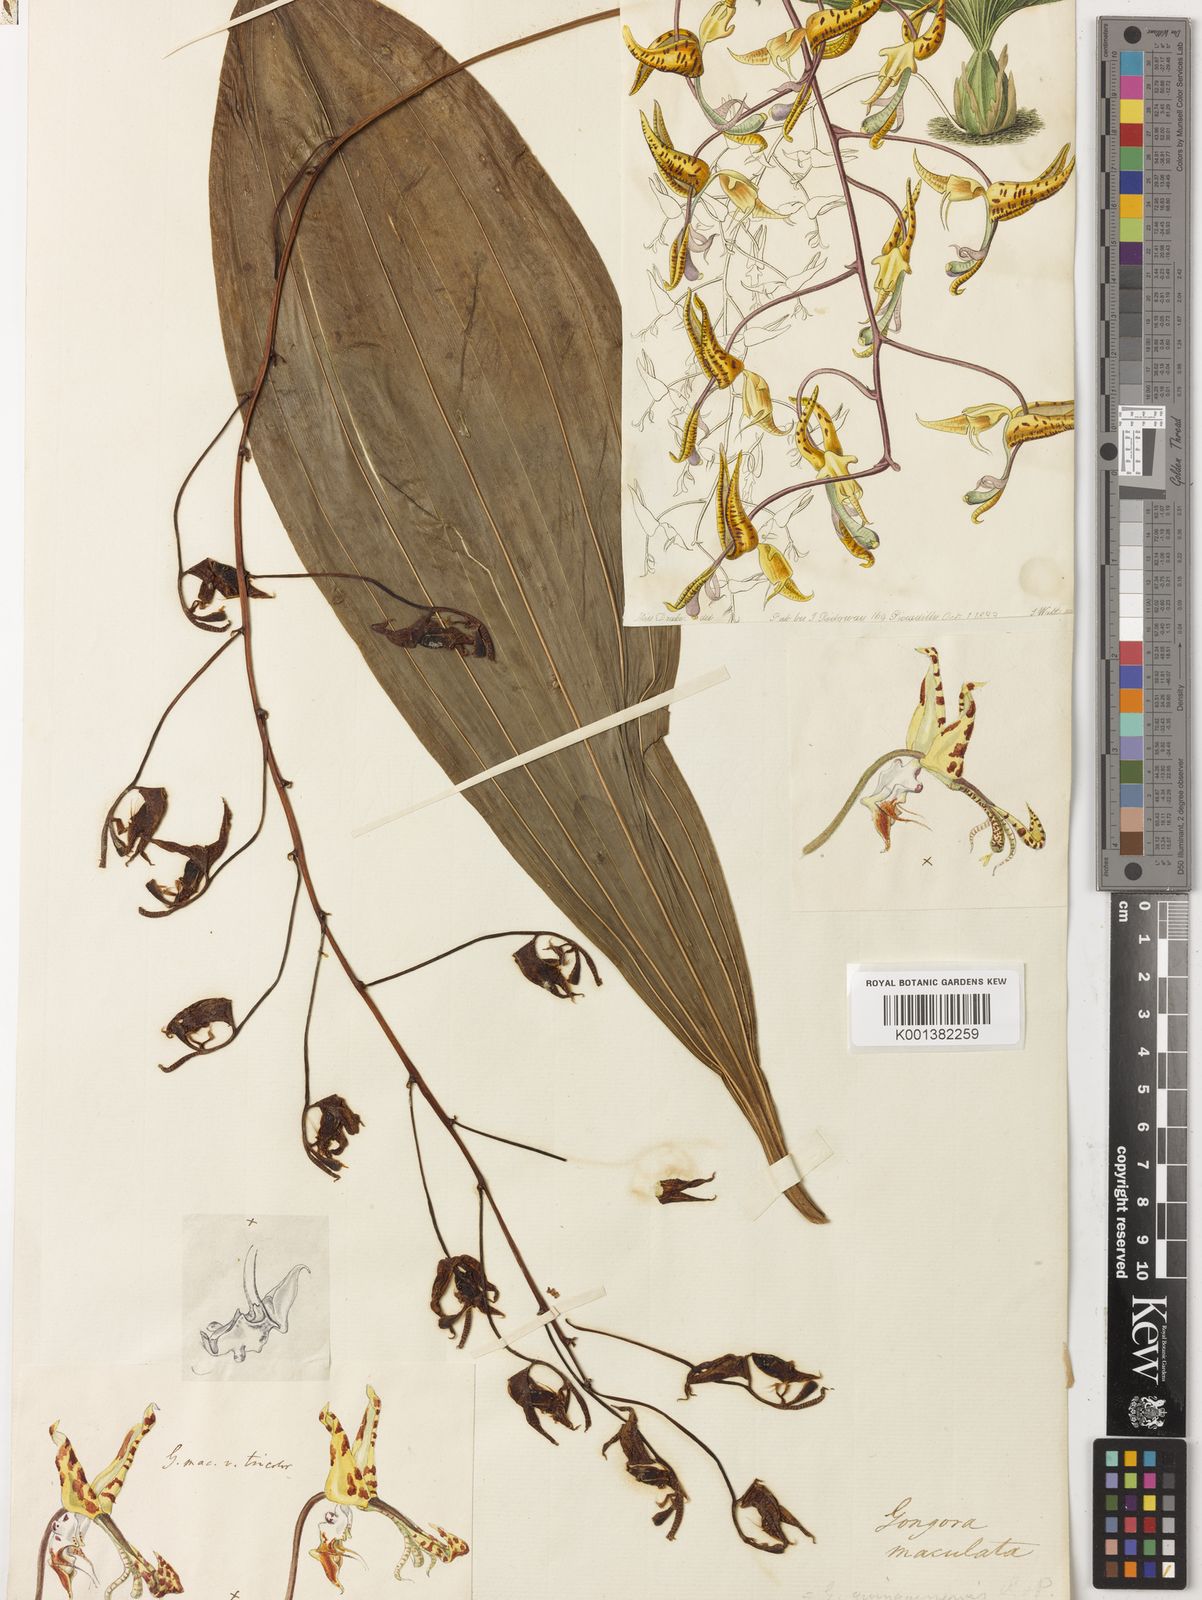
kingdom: Plantae
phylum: Tracheophyta
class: Liliopsida
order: Asparagales
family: Orchidaceae
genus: Gongora
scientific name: Gongora maculata
